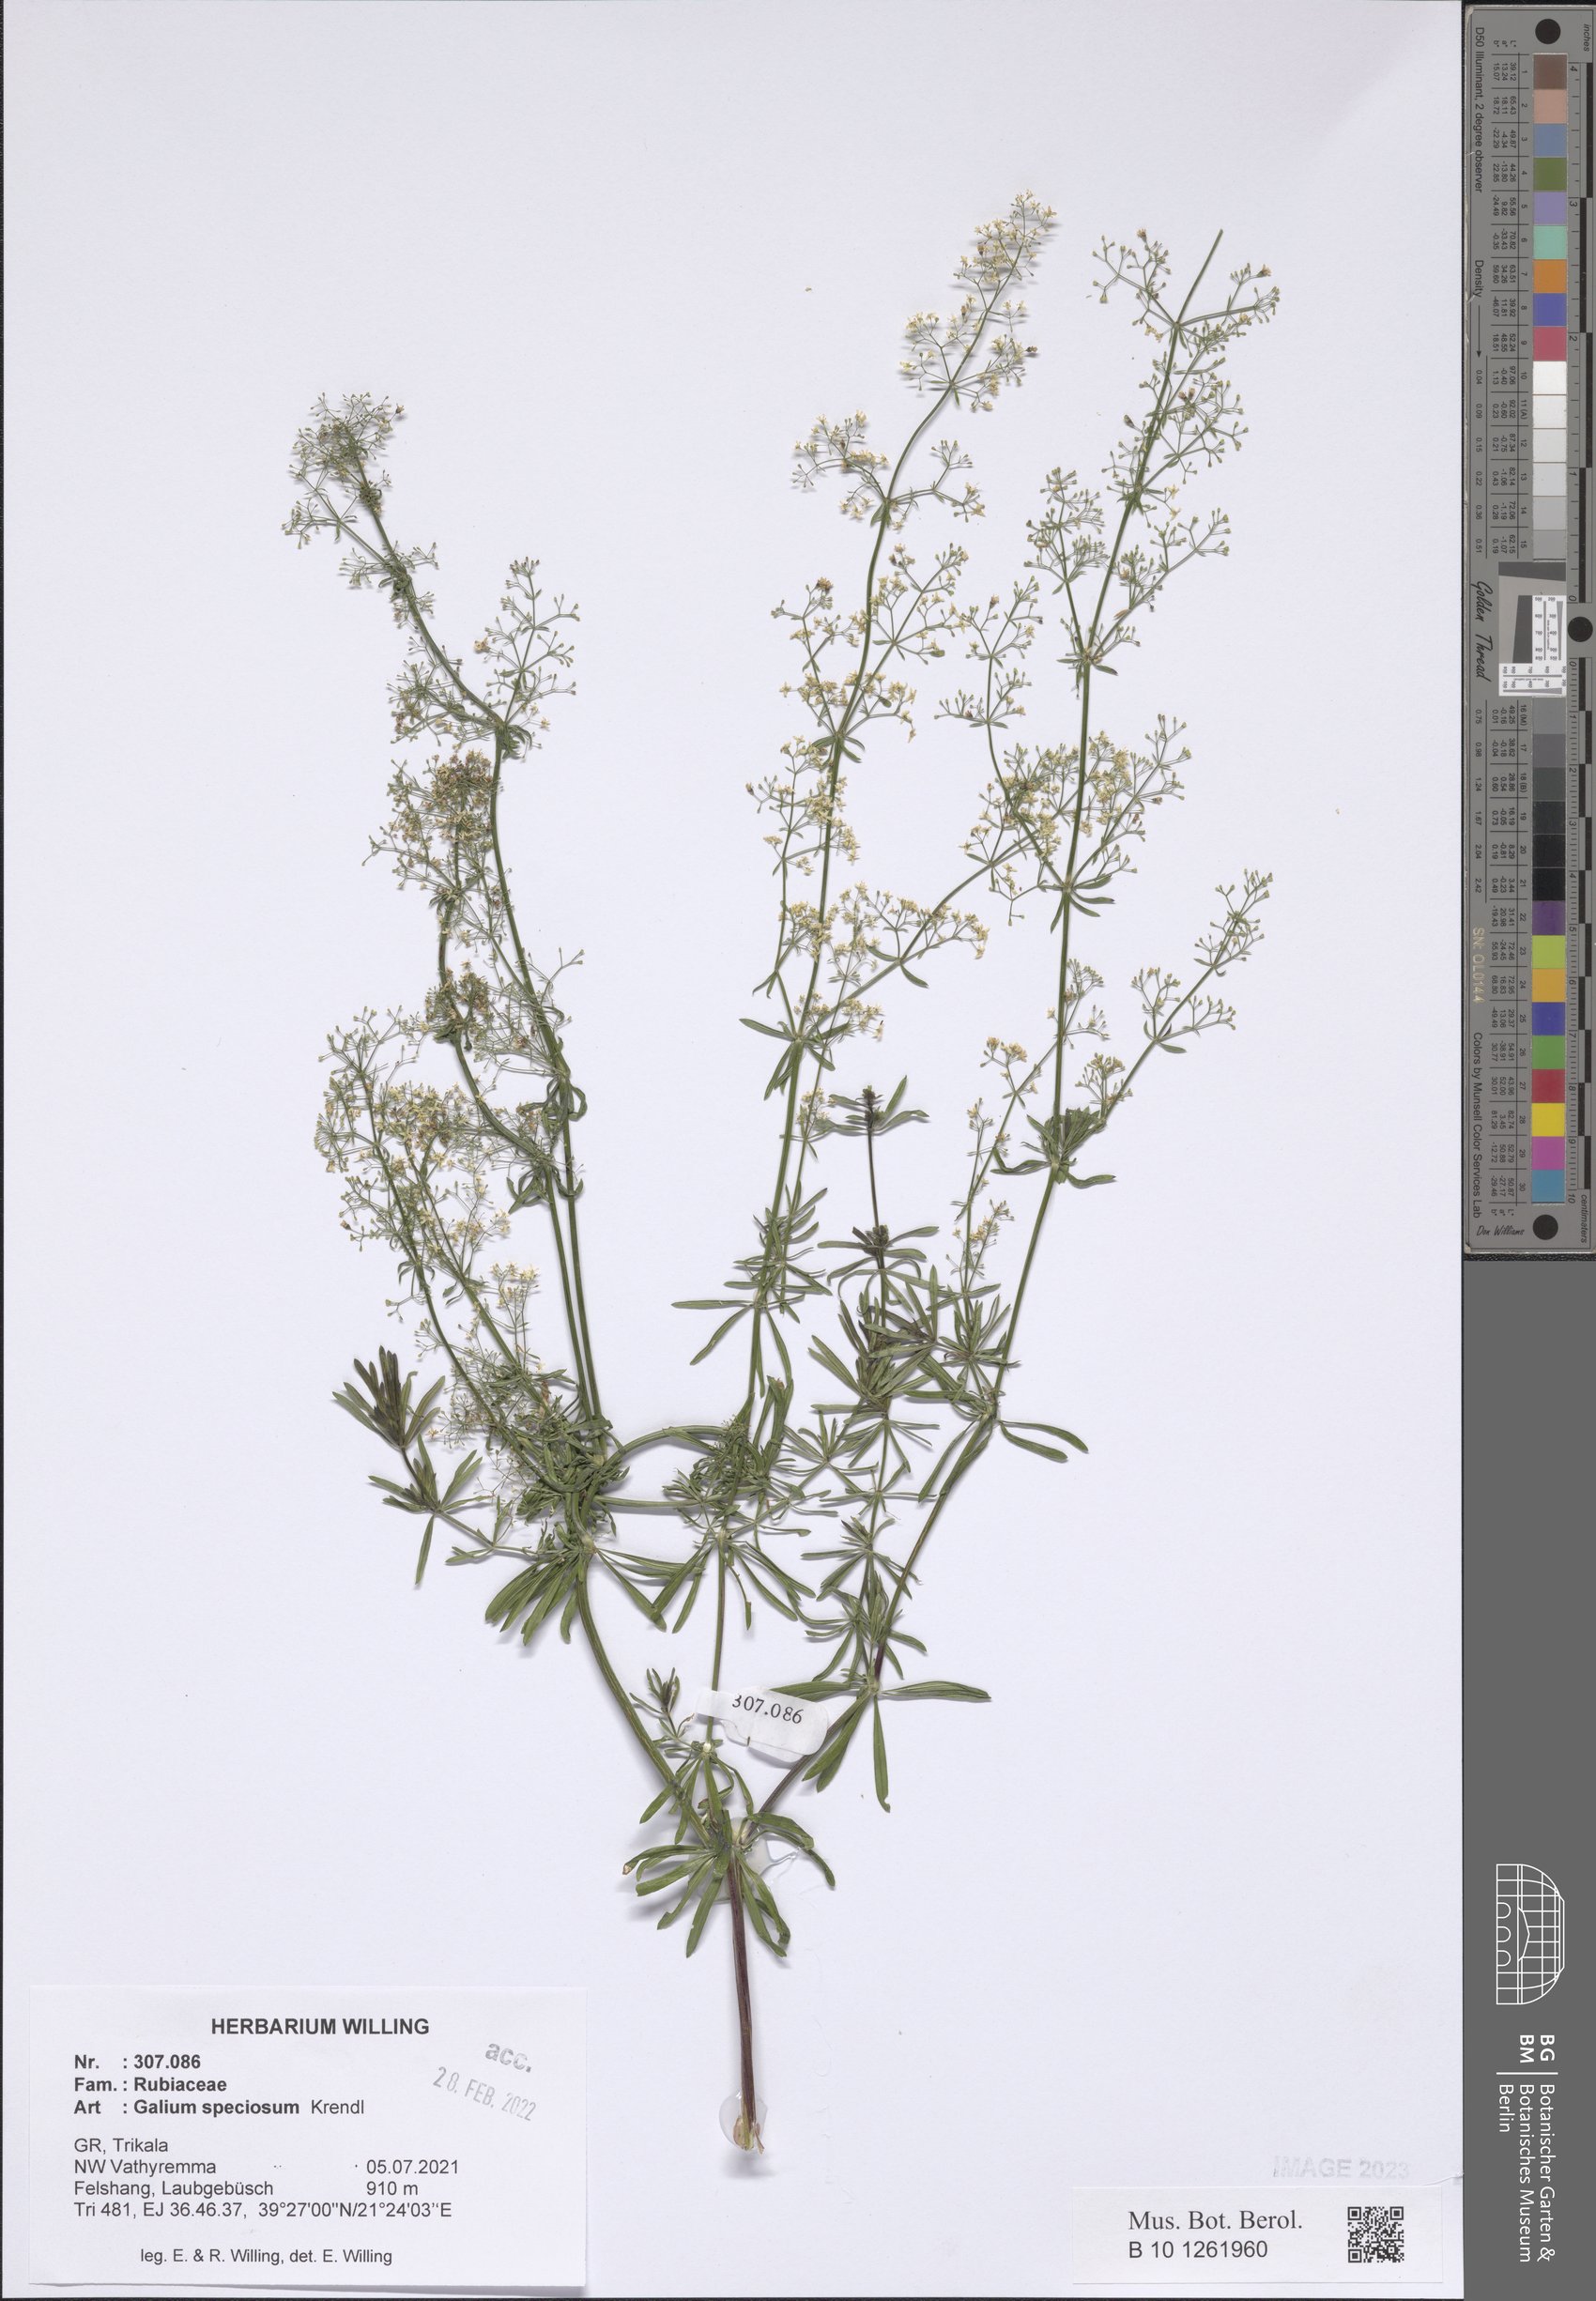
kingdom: Plantae
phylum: Tracheophyta
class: Magnoliopsida
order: Gentianales
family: Rubiaceae
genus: Galium
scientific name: Galium speciosum
